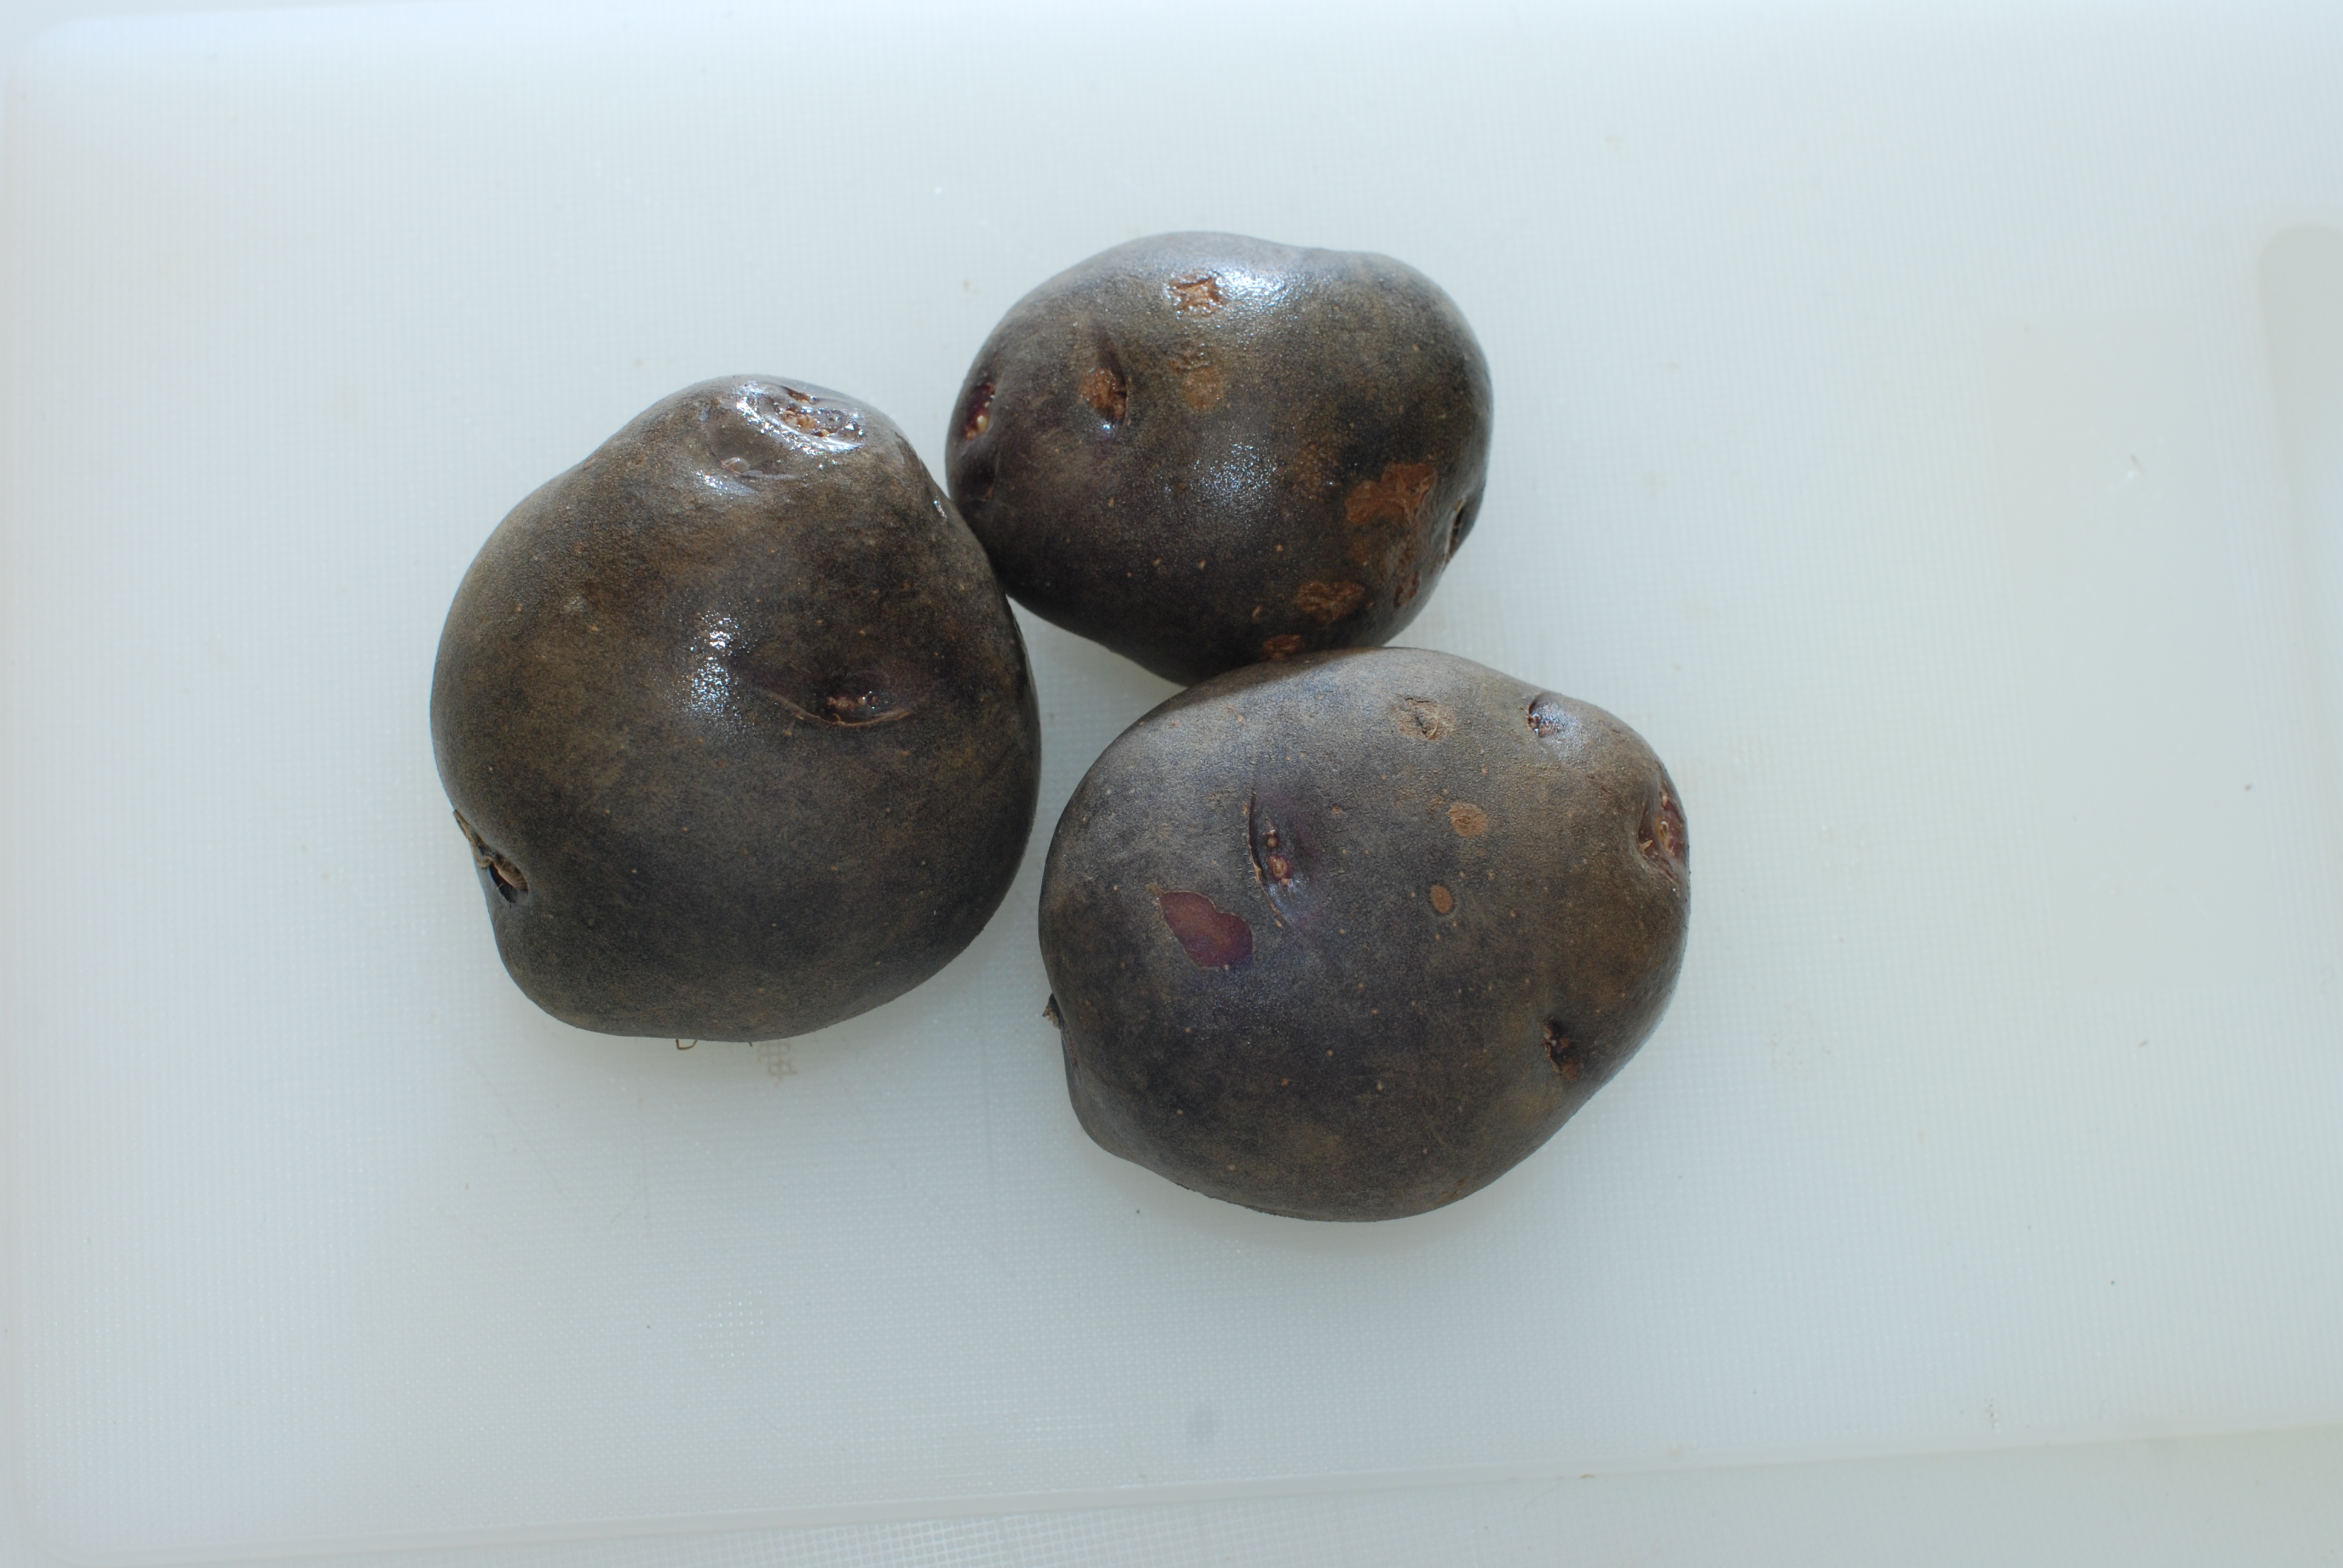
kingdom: Plantae
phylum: Tracheophyta
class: Magnoliopsida
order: Solanales
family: Solanaceae
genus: Solanum
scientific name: Solanum tuberosum
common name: Potato
